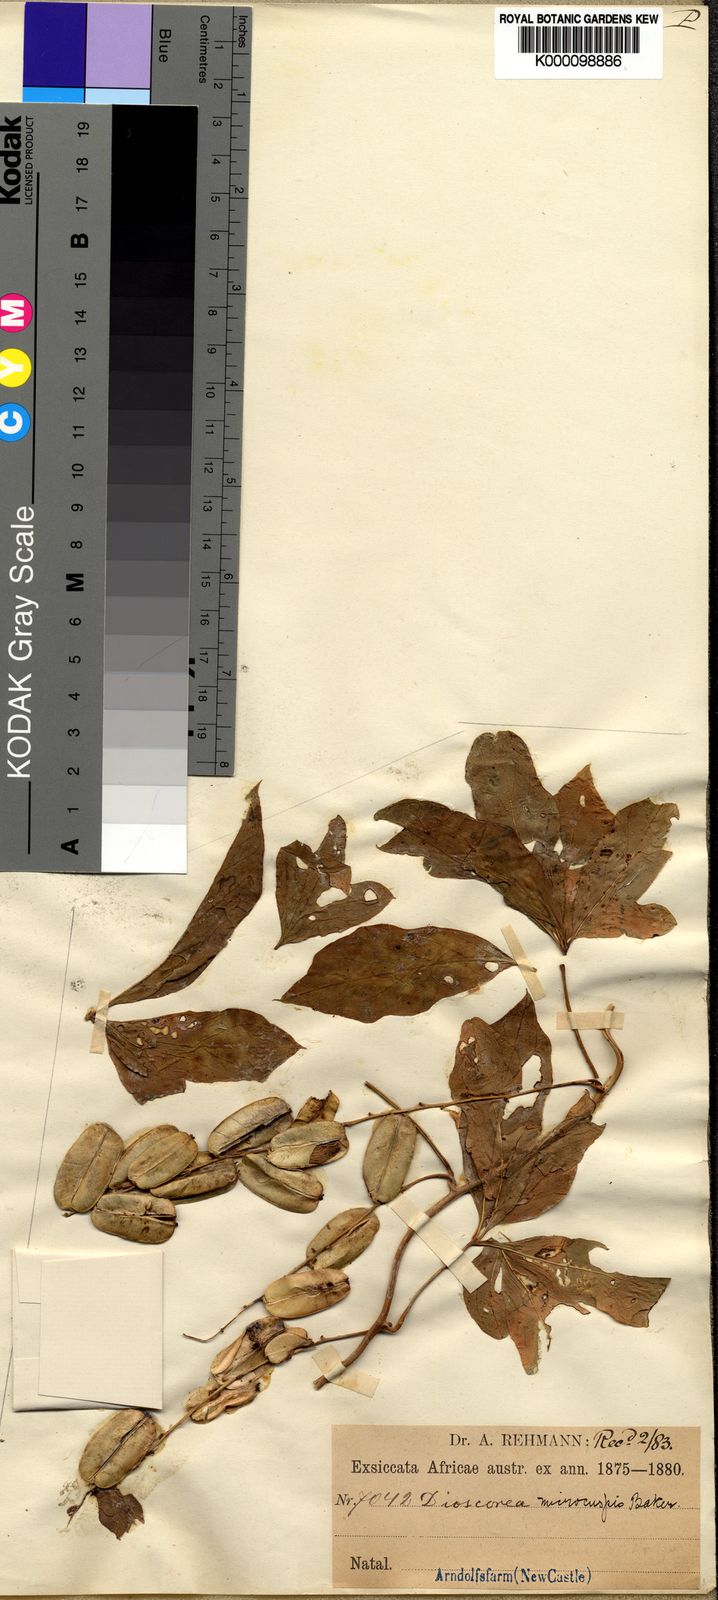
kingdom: Plantae
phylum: Tracheophyta
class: Liliopsida
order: Dioscoreales
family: Dioscoreaceae
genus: Dioscorea
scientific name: Dioscorea retusa
